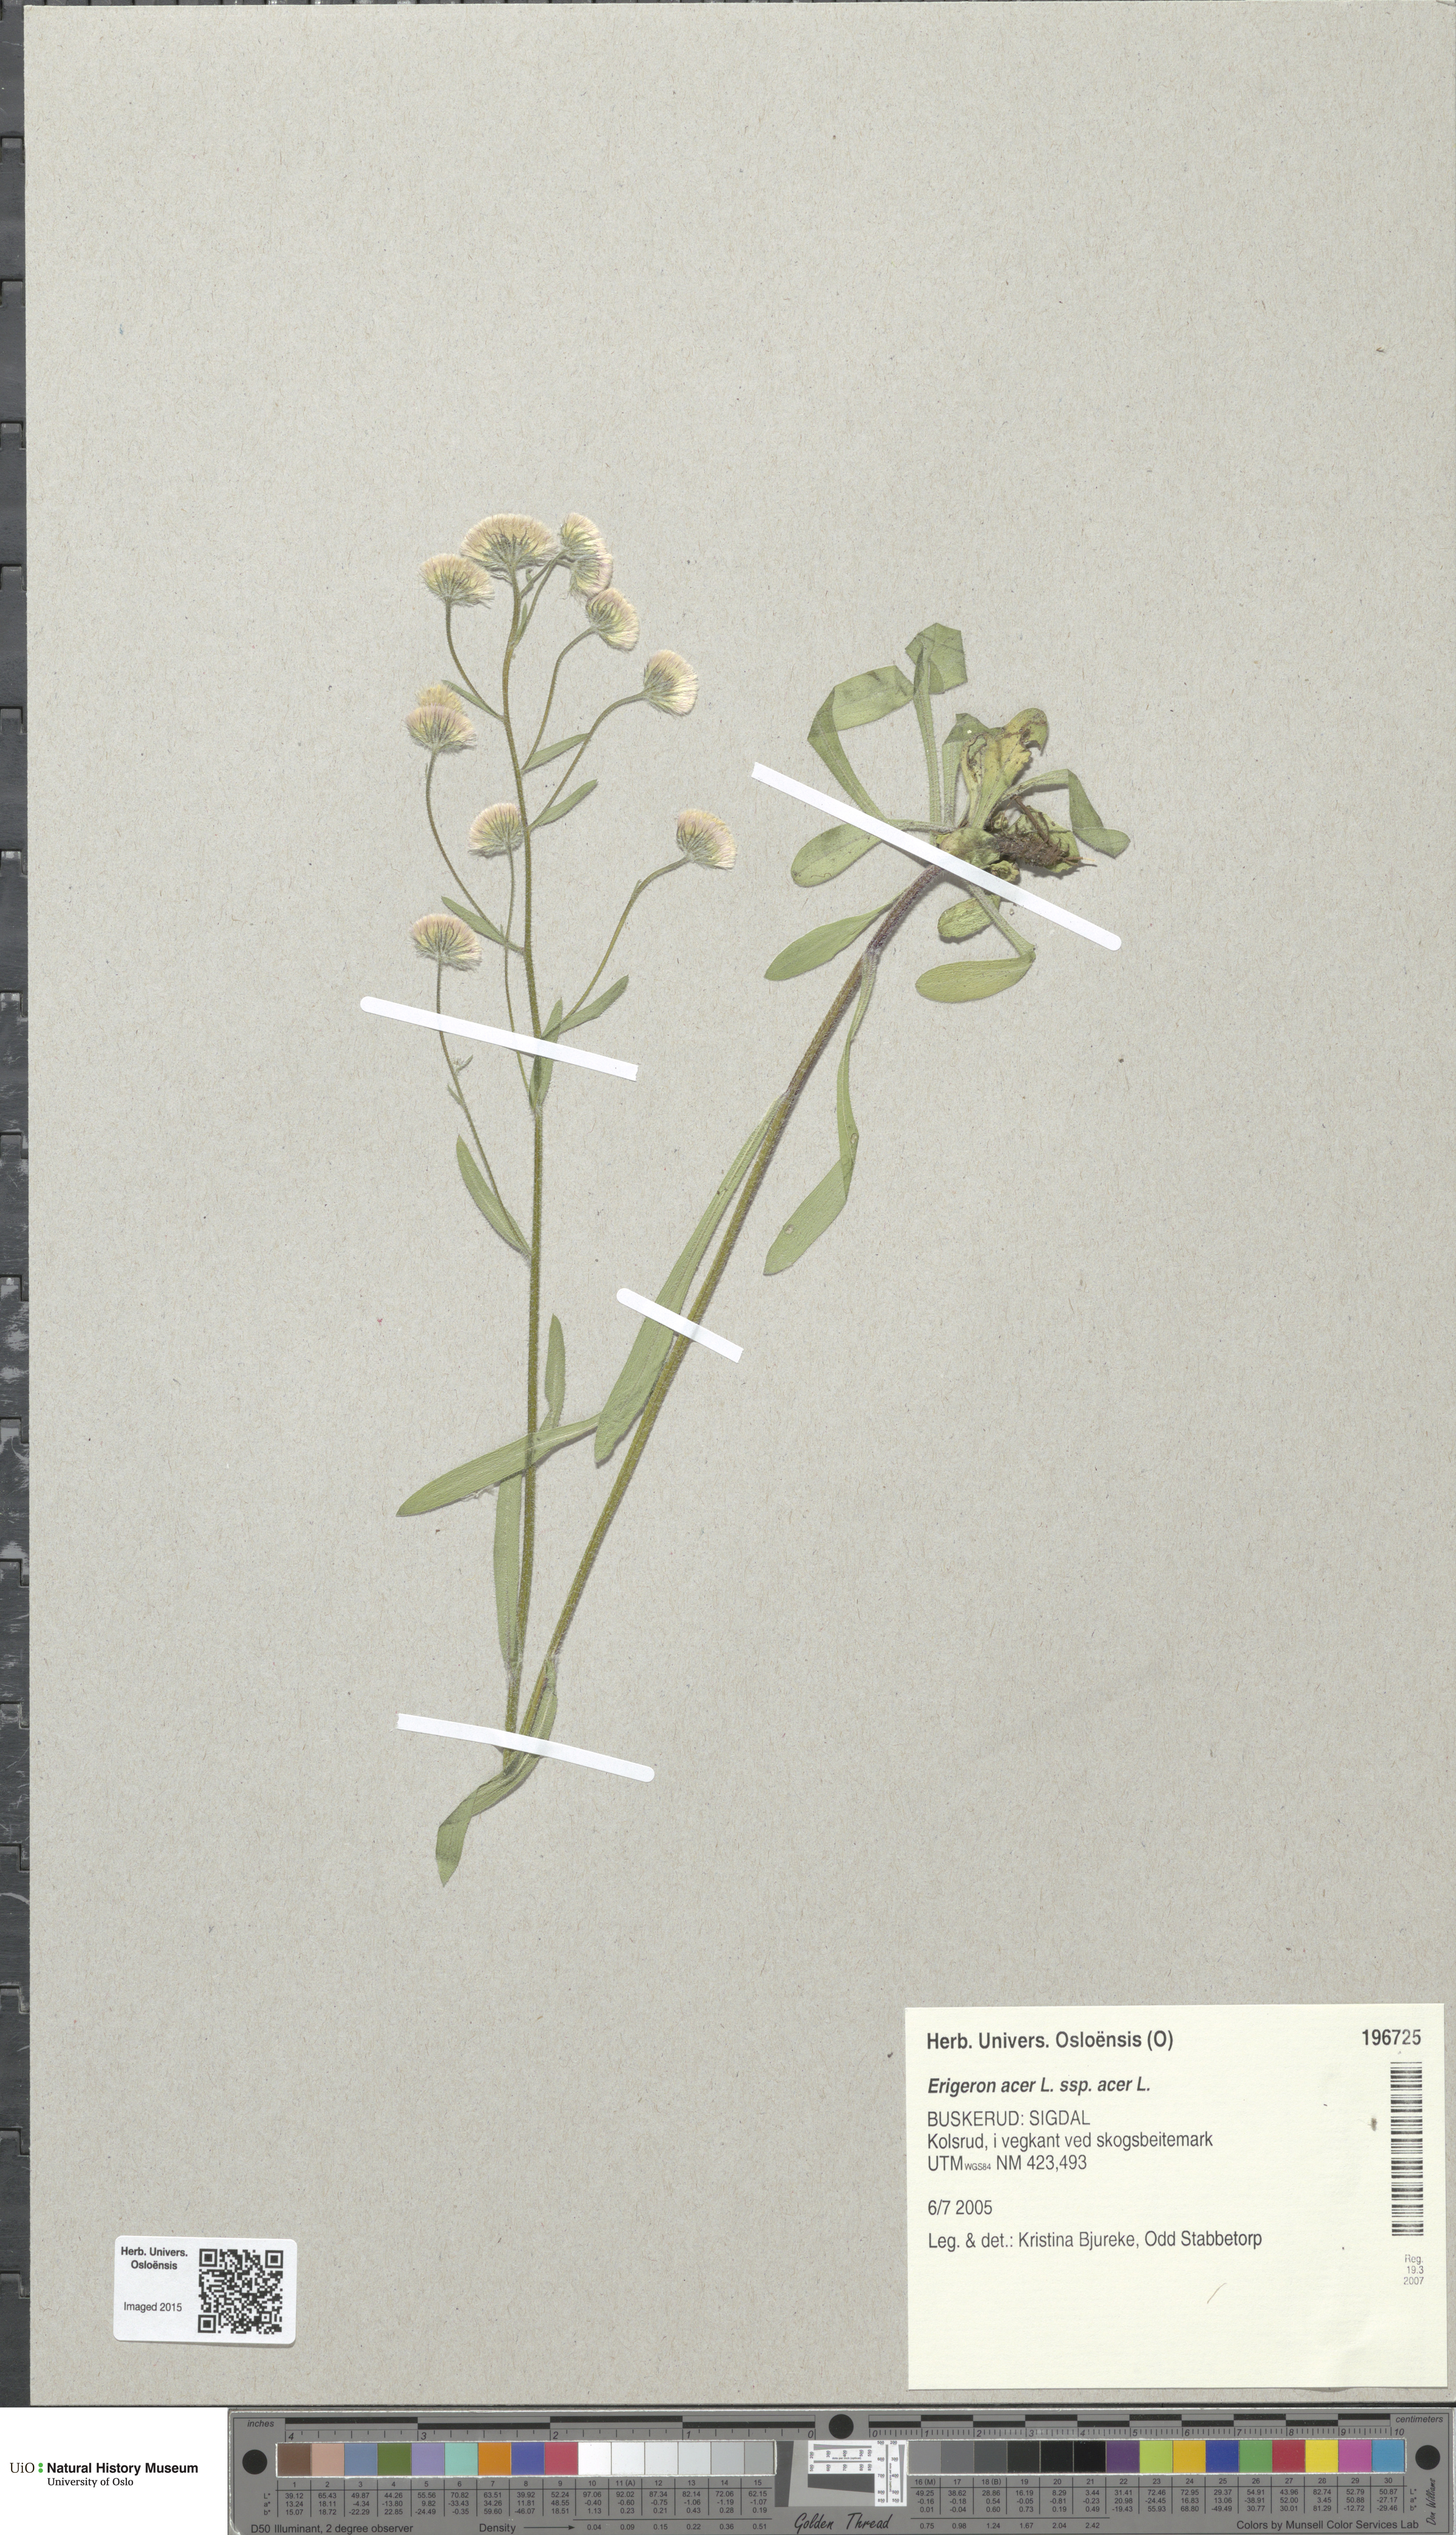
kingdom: Plantae
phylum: Tracheophyta
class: Magnoliopsida
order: Asterales
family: Asteraceae
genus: Erigeron
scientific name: Erigeron acris
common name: Blue fleabane
